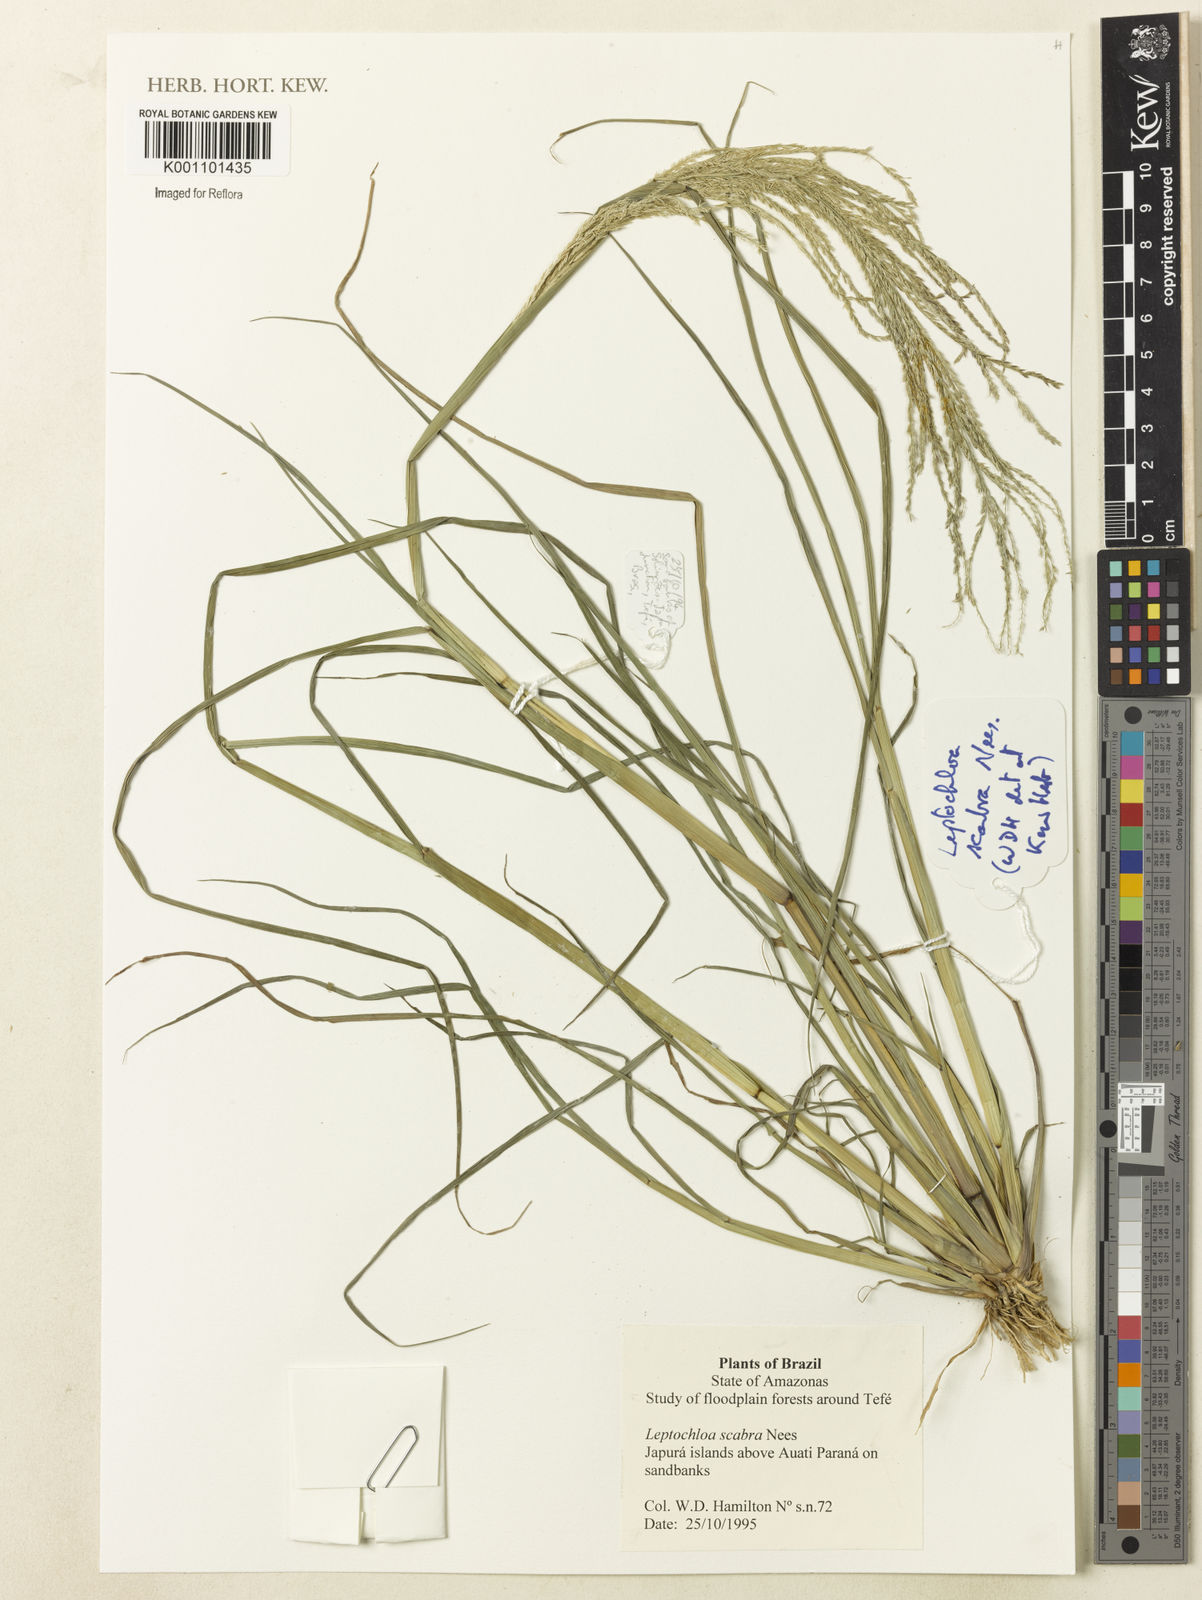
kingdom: Plantae
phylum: Tracheophyta
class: Liliopsida
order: Poales
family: Poaceae
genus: Leptochloa
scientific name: Leptochloa
